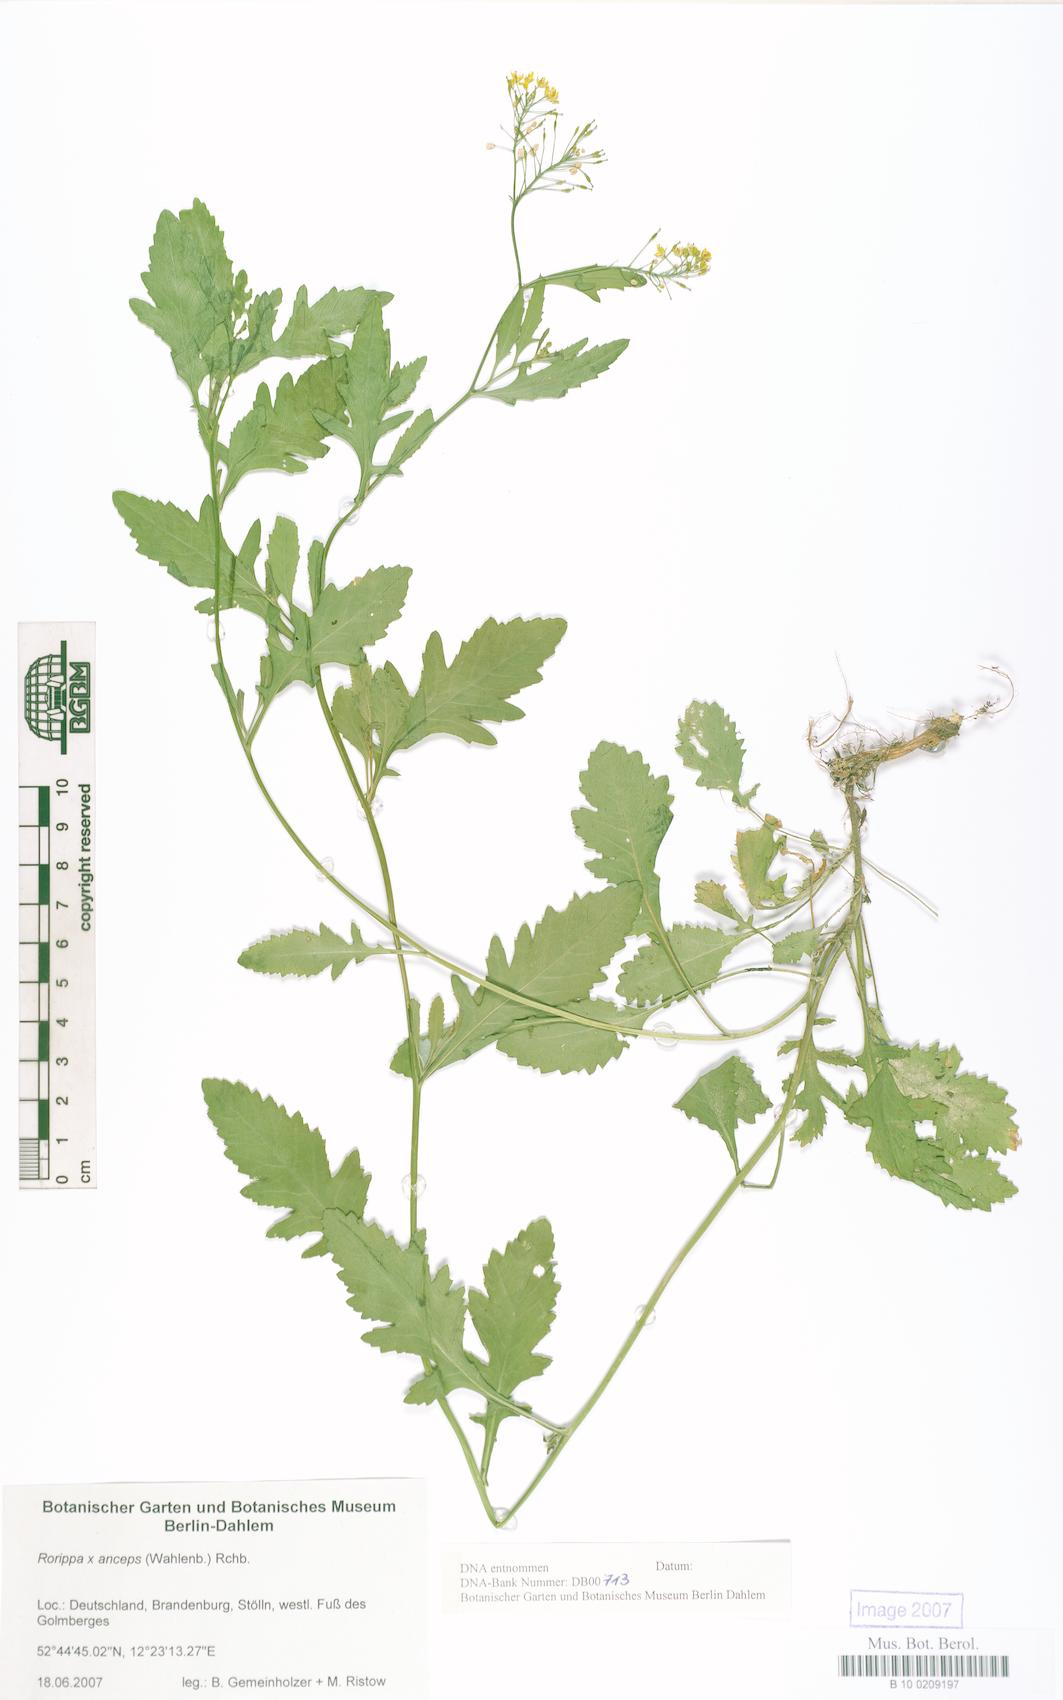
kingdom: Plantae
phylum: Tracheophyta
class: Magnoliopsida
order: Brassicales
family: Brassicaceae
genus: Rorippa
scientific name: Rorippa anceps
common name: Rorippa
